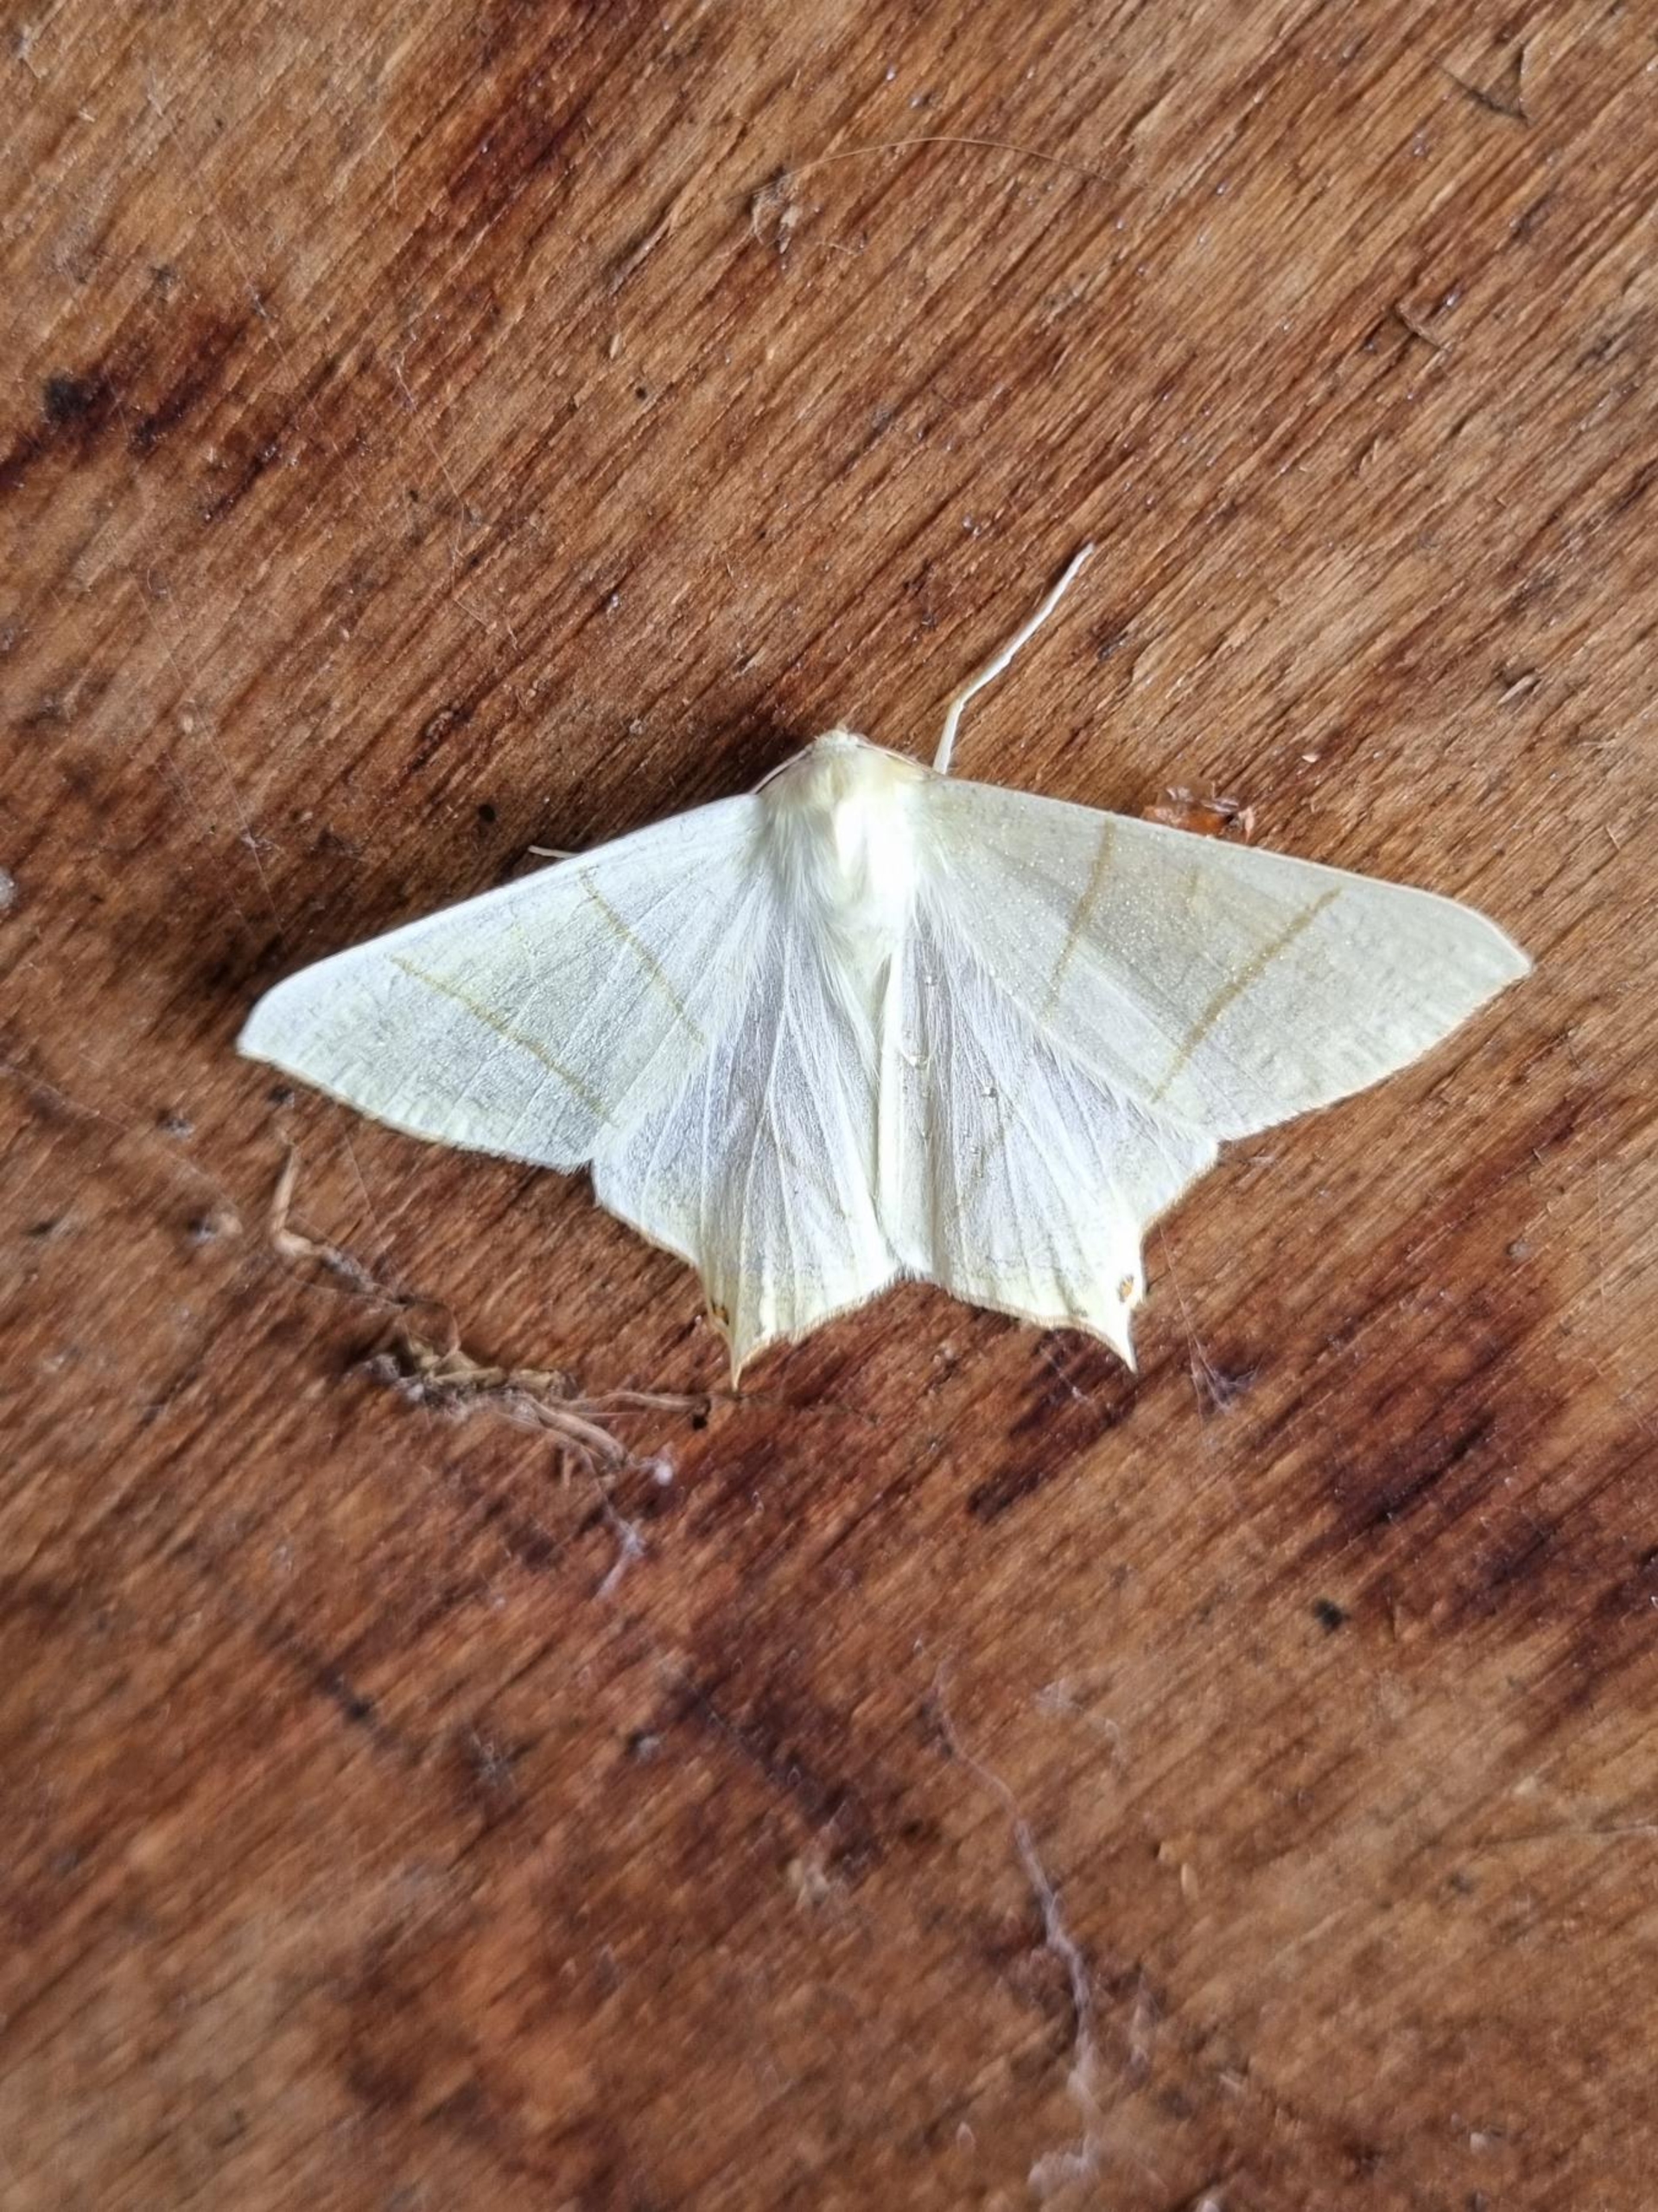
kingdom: Animalia
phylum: Arthropoda
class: Insecta
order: Lepidoptera
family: Geometridae
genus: Ourapteryx
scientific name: Ourapteryx sambucaria
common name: Natsvalehale
